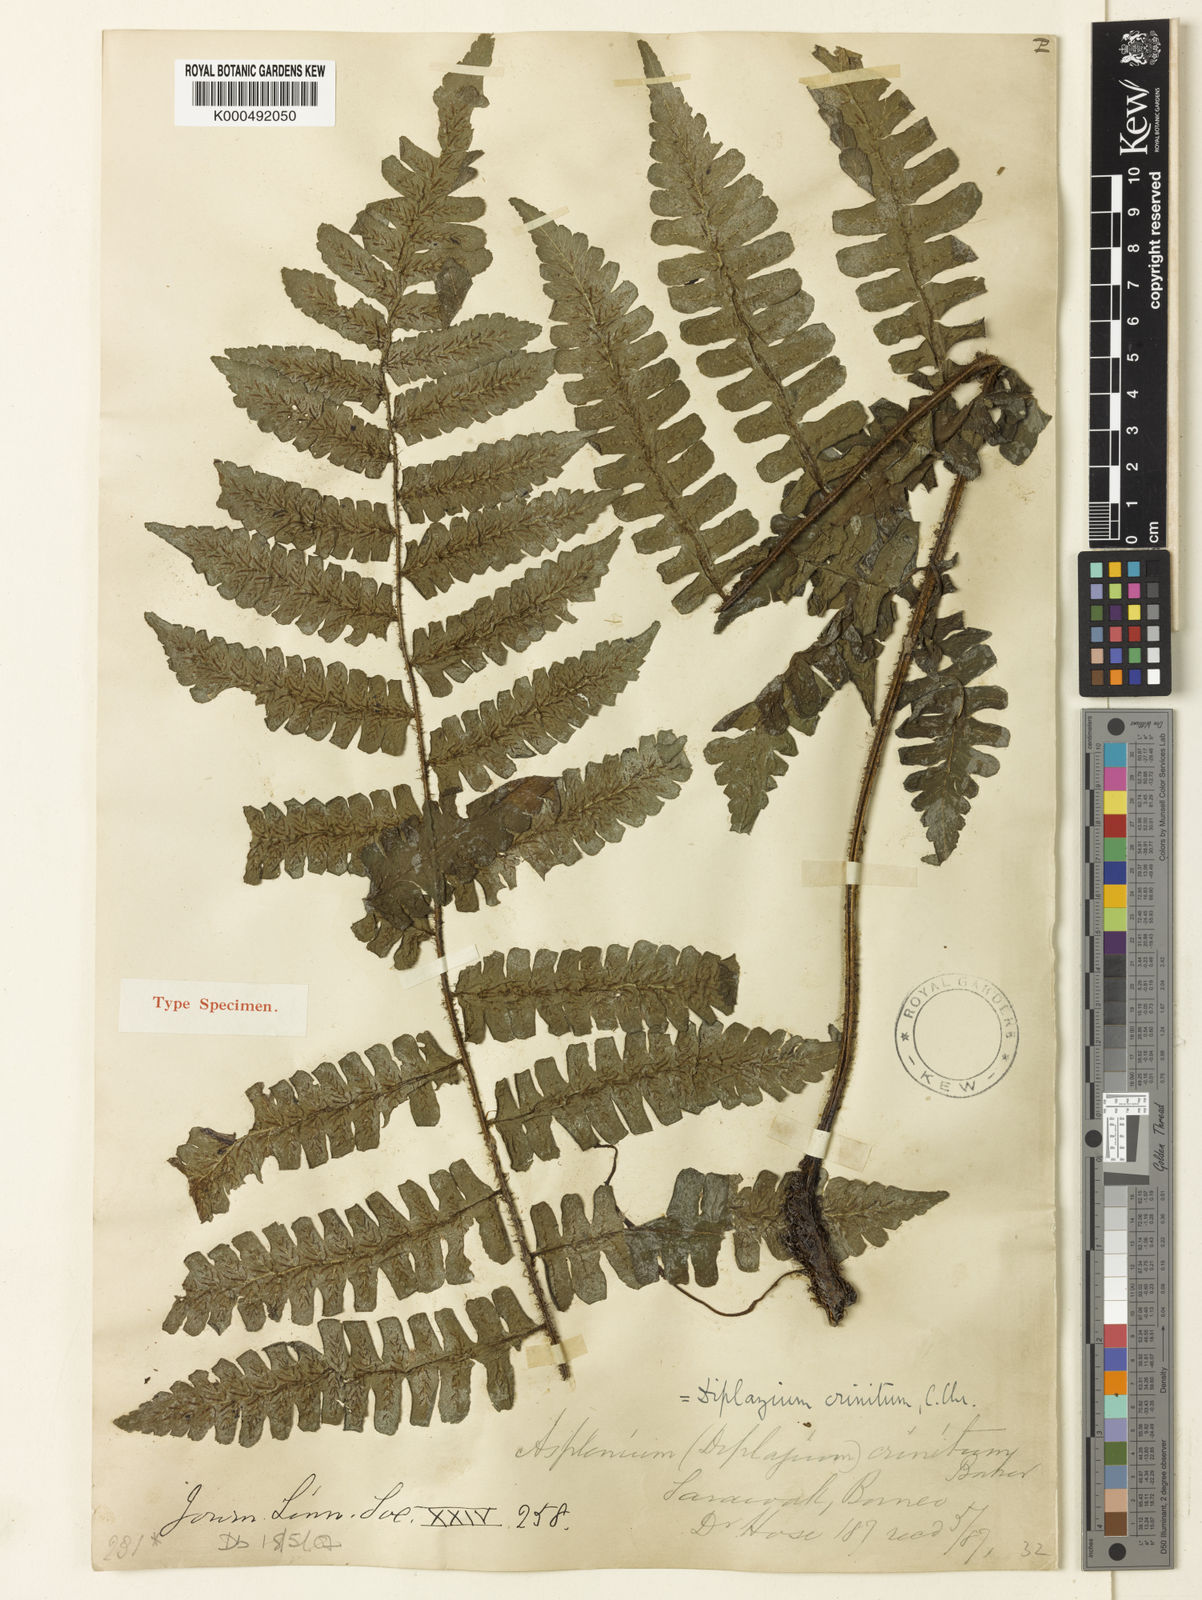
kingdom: Plantae
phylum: Tracheophyta
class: Polypodiopsida
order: Polypodiales
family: Athyriaceae
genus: Diplazium
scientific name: Diplazium crinitum
